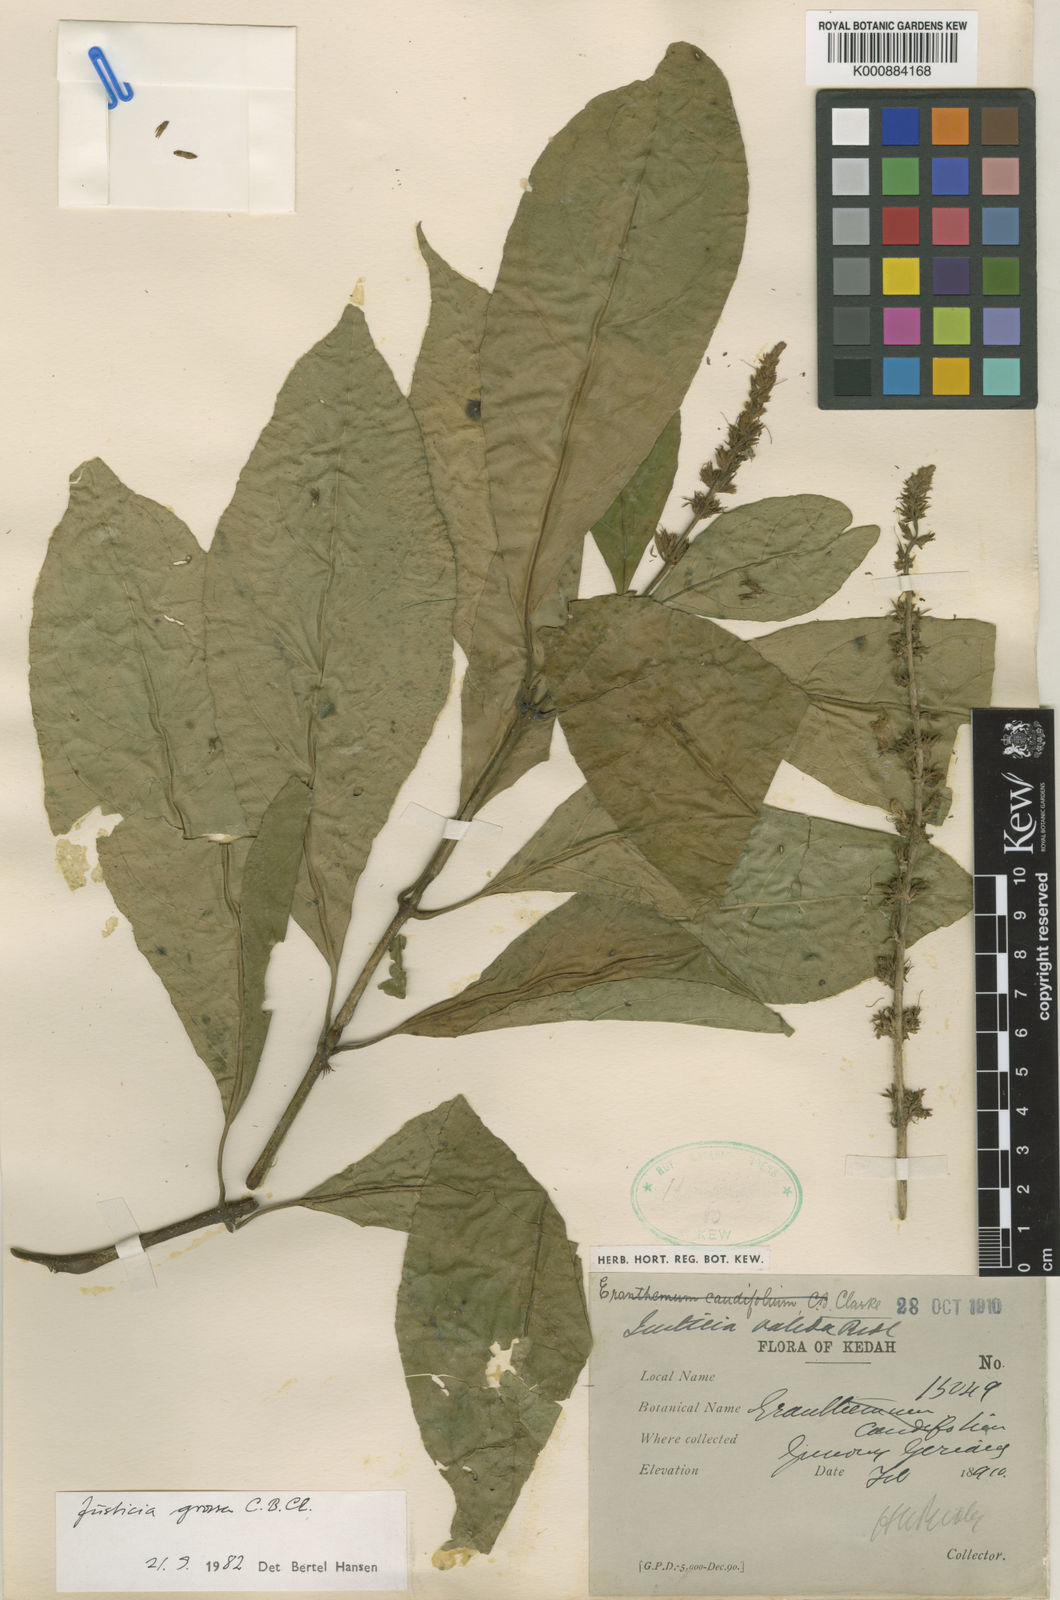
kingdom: Plantae
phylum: Tracheophyta
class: Magnoliopsida
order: Lamiales
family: Acanthaceae
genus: Ecbolium
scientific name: Ecbolium grossum
